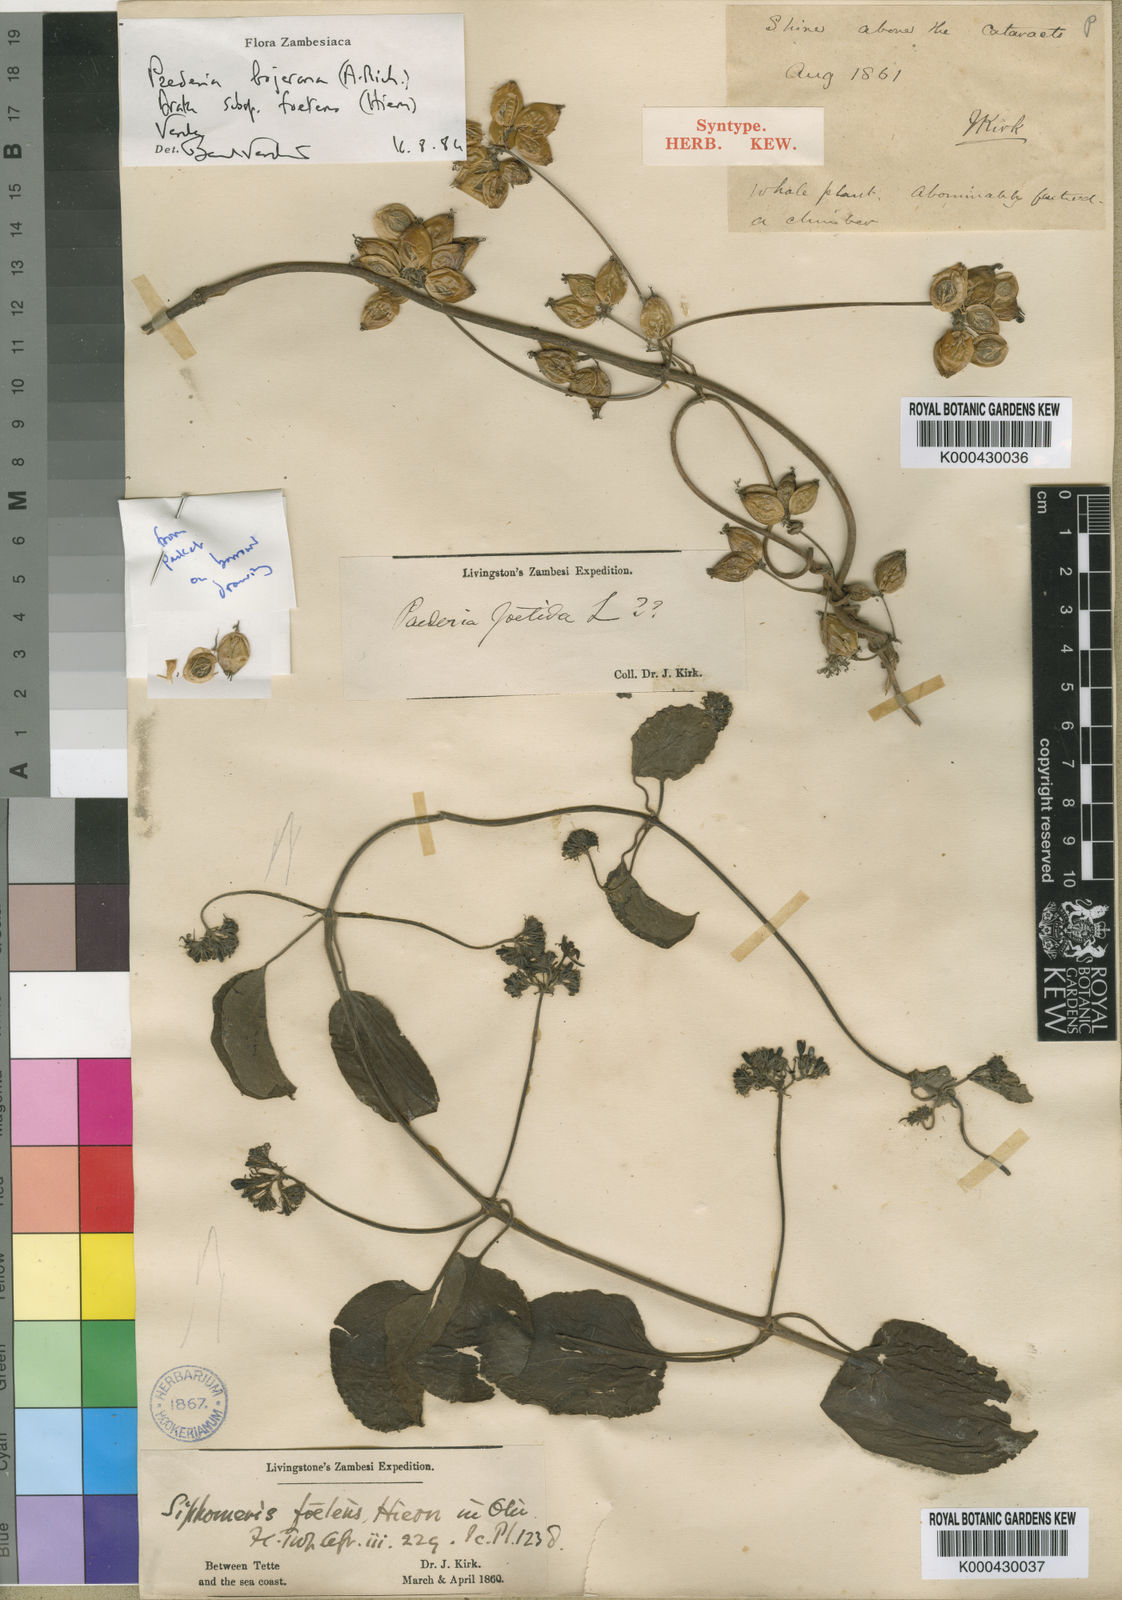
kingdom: Plantae
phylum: Tracheophyta
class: Magnoliopsida
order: Gentianales
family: Rubiaceae
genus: Paederia
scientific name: Paederia bojeriana
